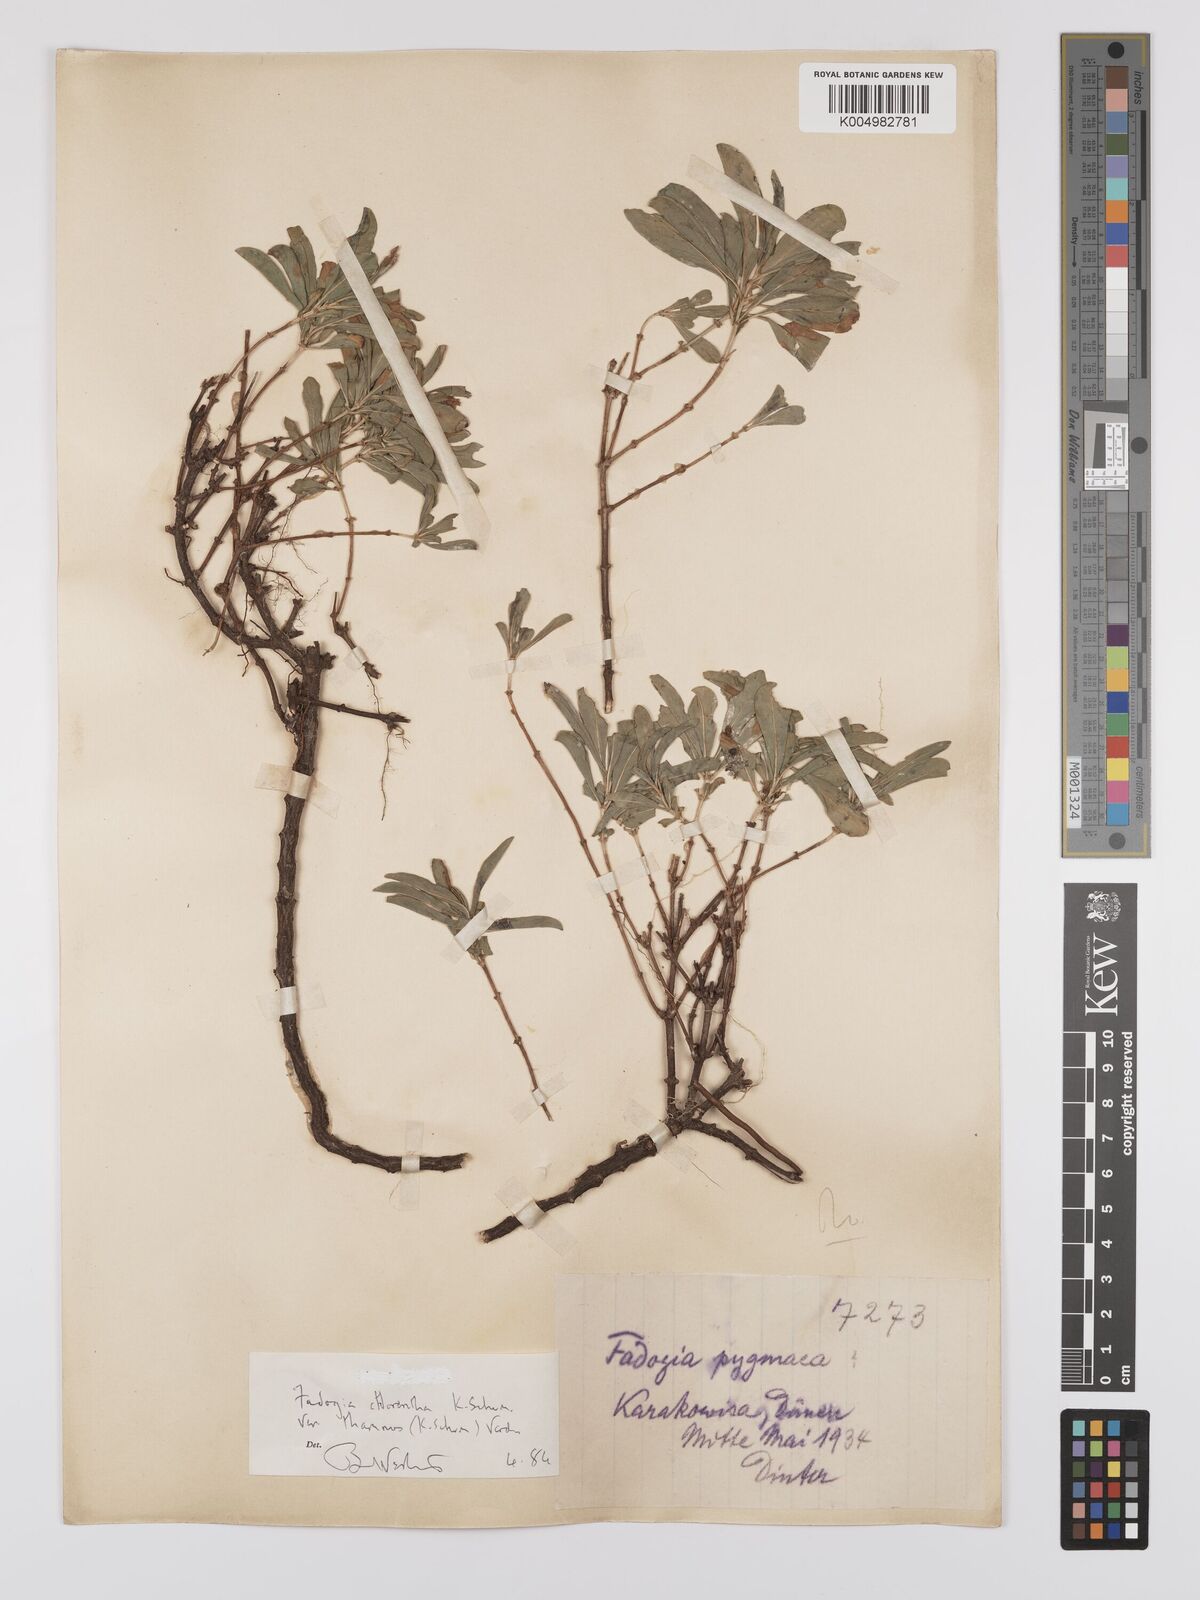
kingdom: Plantae
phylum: Tracheophyta
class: Magnoliopsida
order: Gentianales
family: Rubiaceae
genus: Fadogia
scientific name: Fadogia
